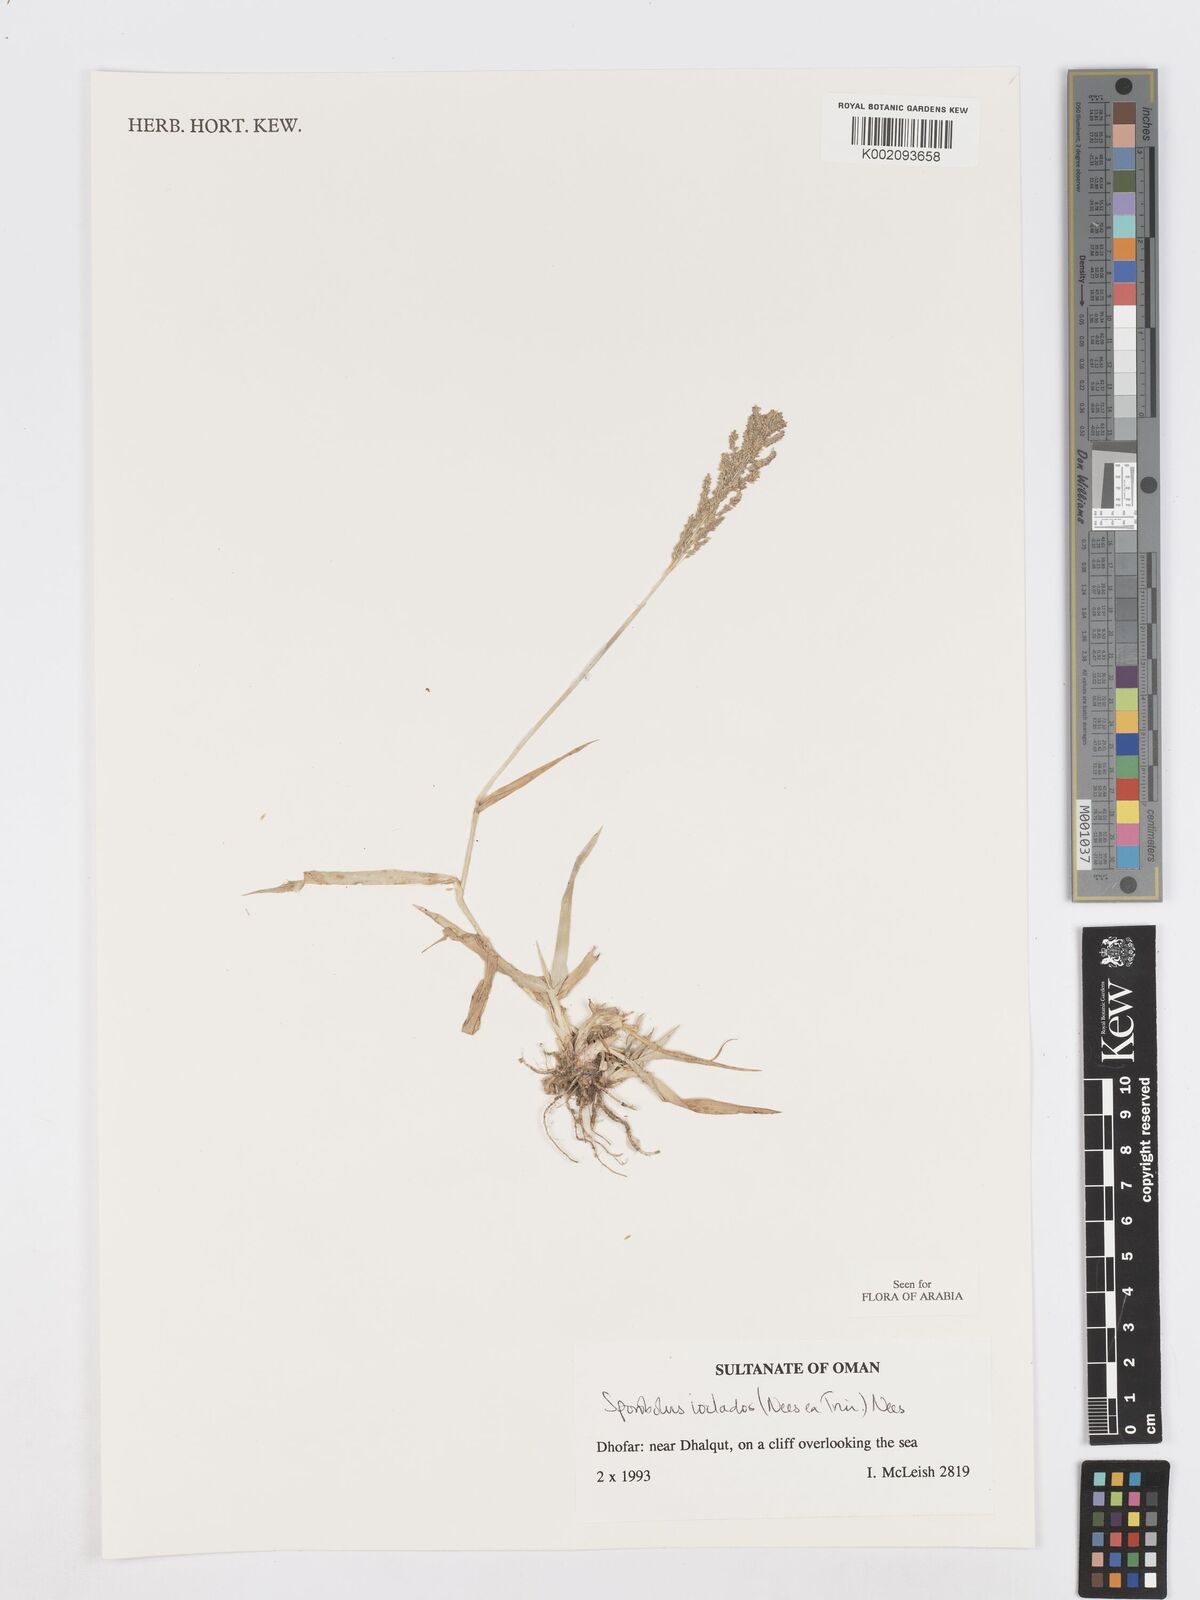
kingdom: Plantae
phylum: Tracheophyta
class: Liliopsida
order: Poales
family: Poaceae
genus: Sporobolus
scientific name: Sporobolus ioclados
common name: Pan dropseed
